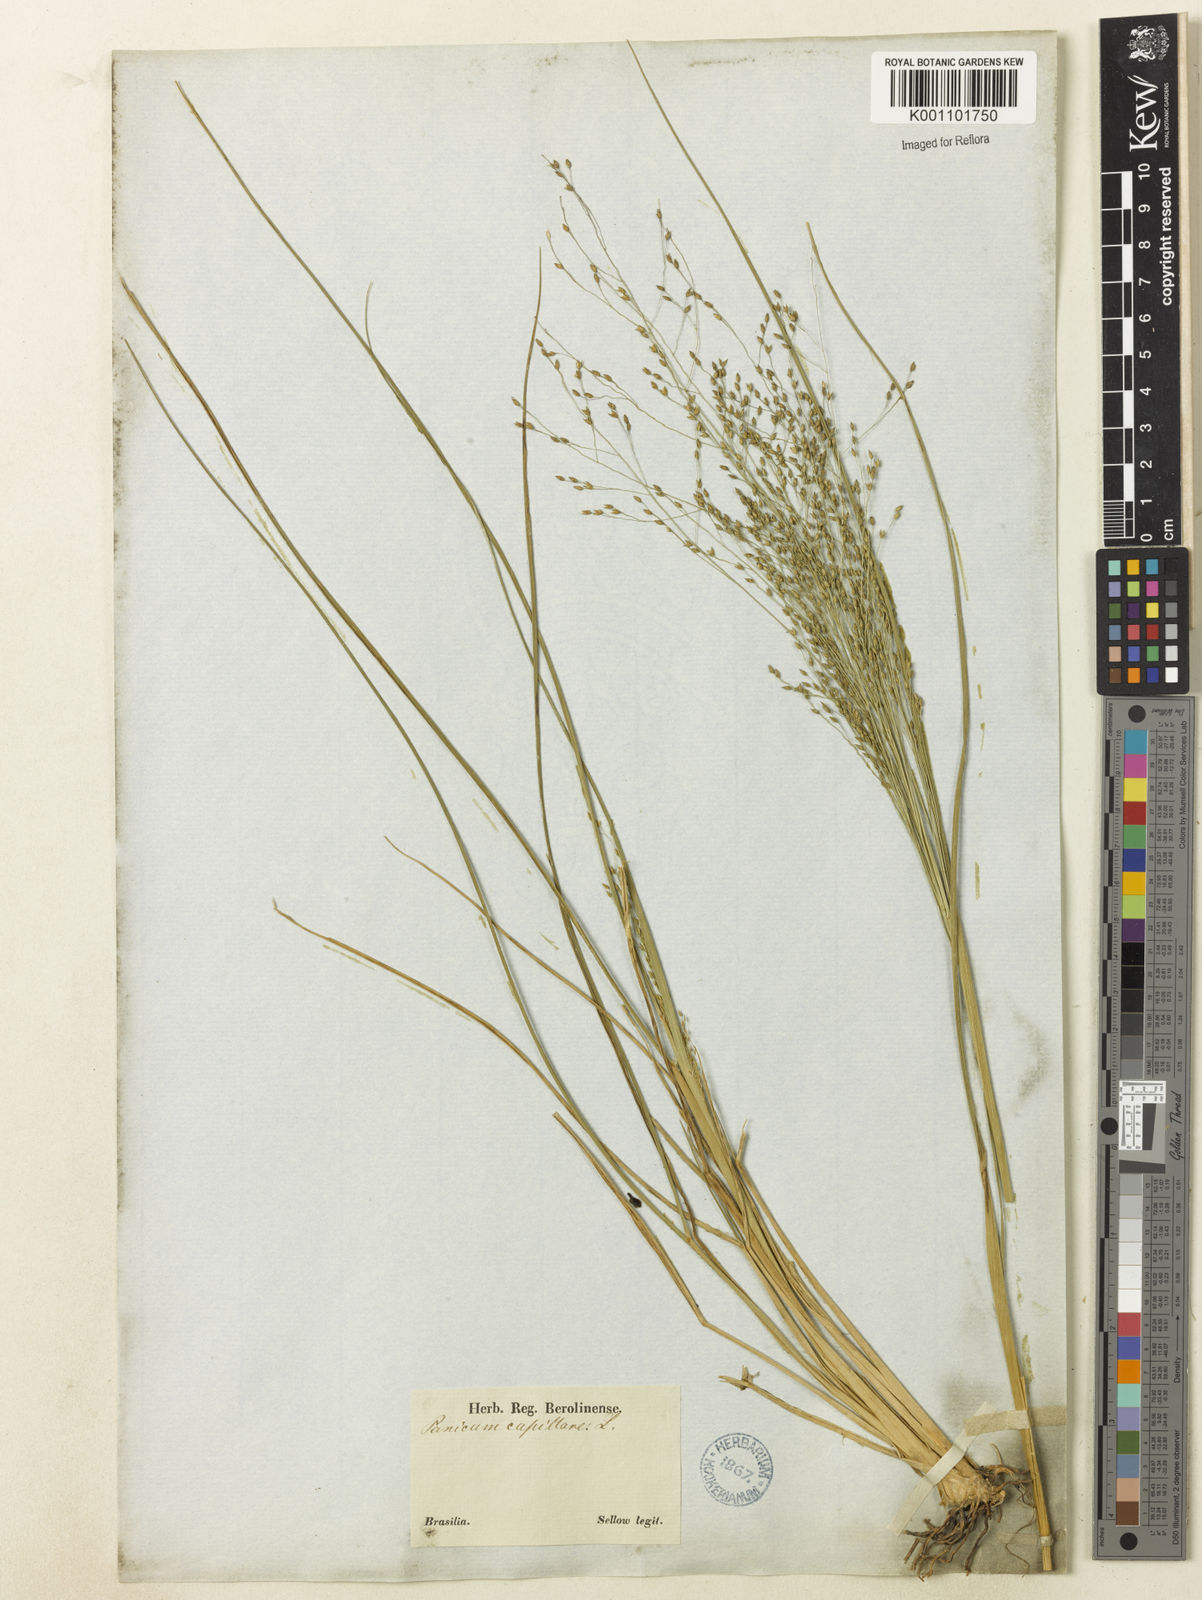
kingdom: Plantae
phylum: Tracheophyta
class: Liliopsida
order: Poales
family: Poaceae
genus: Panicum
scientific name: Panicum bergii
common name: Berg's panicgrass
